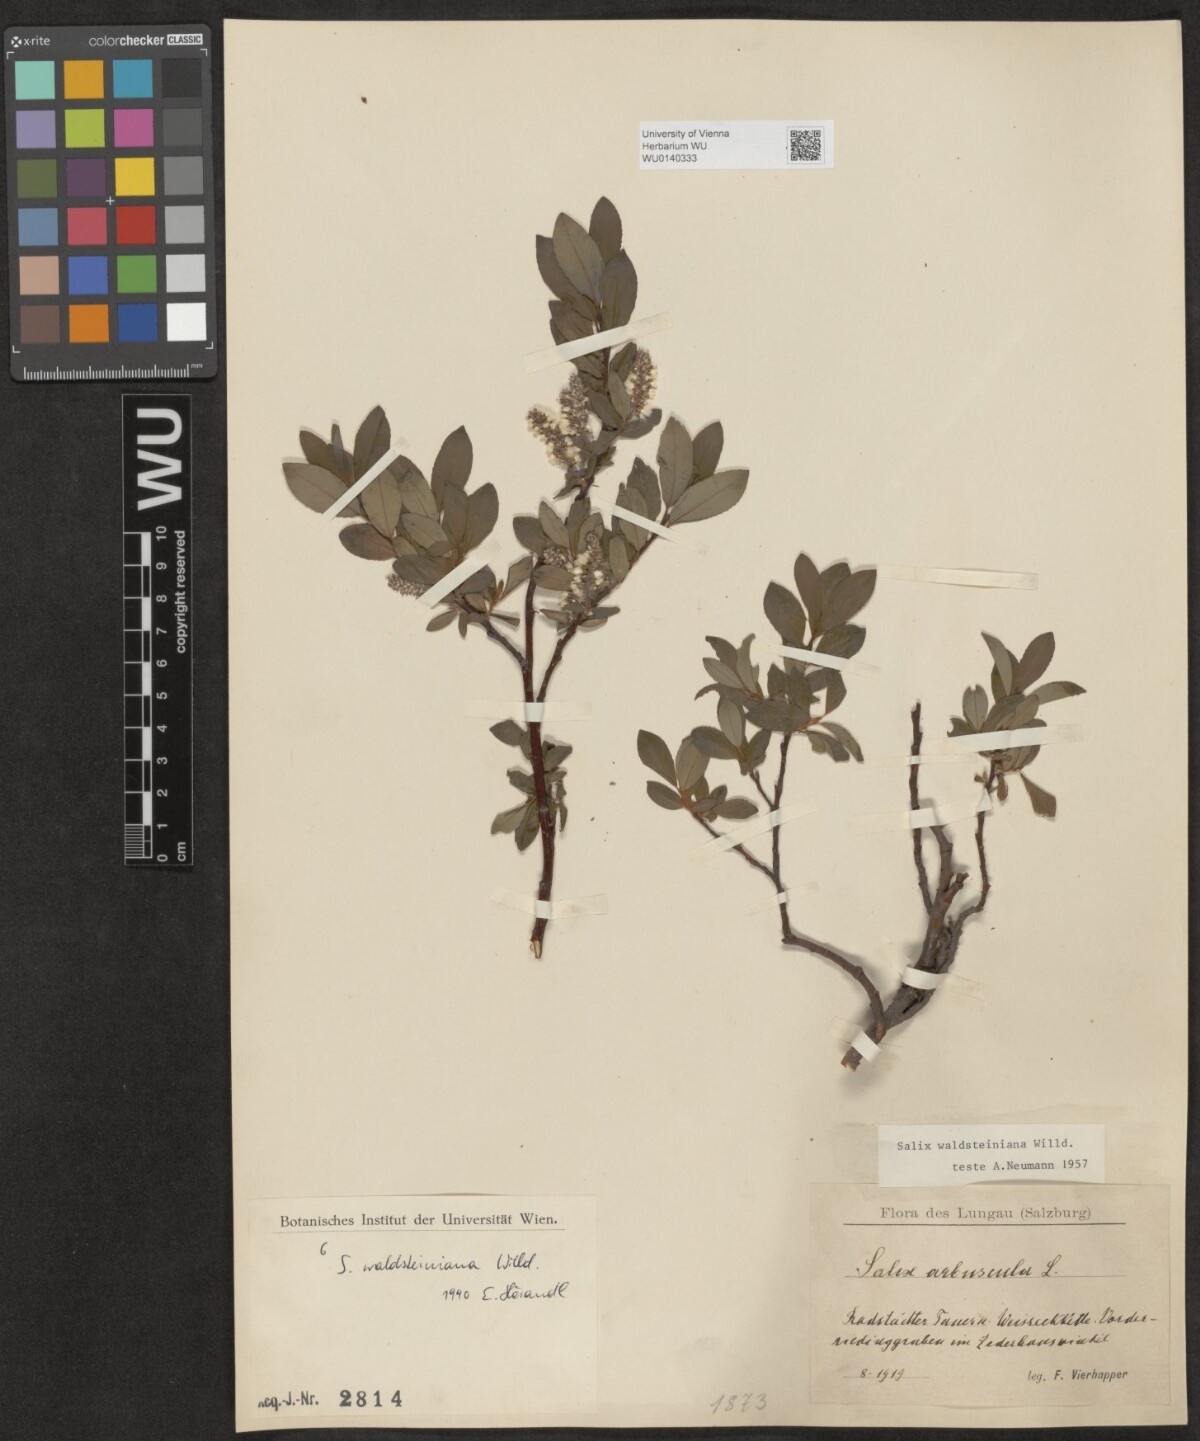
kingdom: Plantae
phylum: Tracheophyta
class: Magnoliopsida
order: Malpighiales
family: Salicaceae
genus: Salix
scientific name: Salix waldsteiniana
